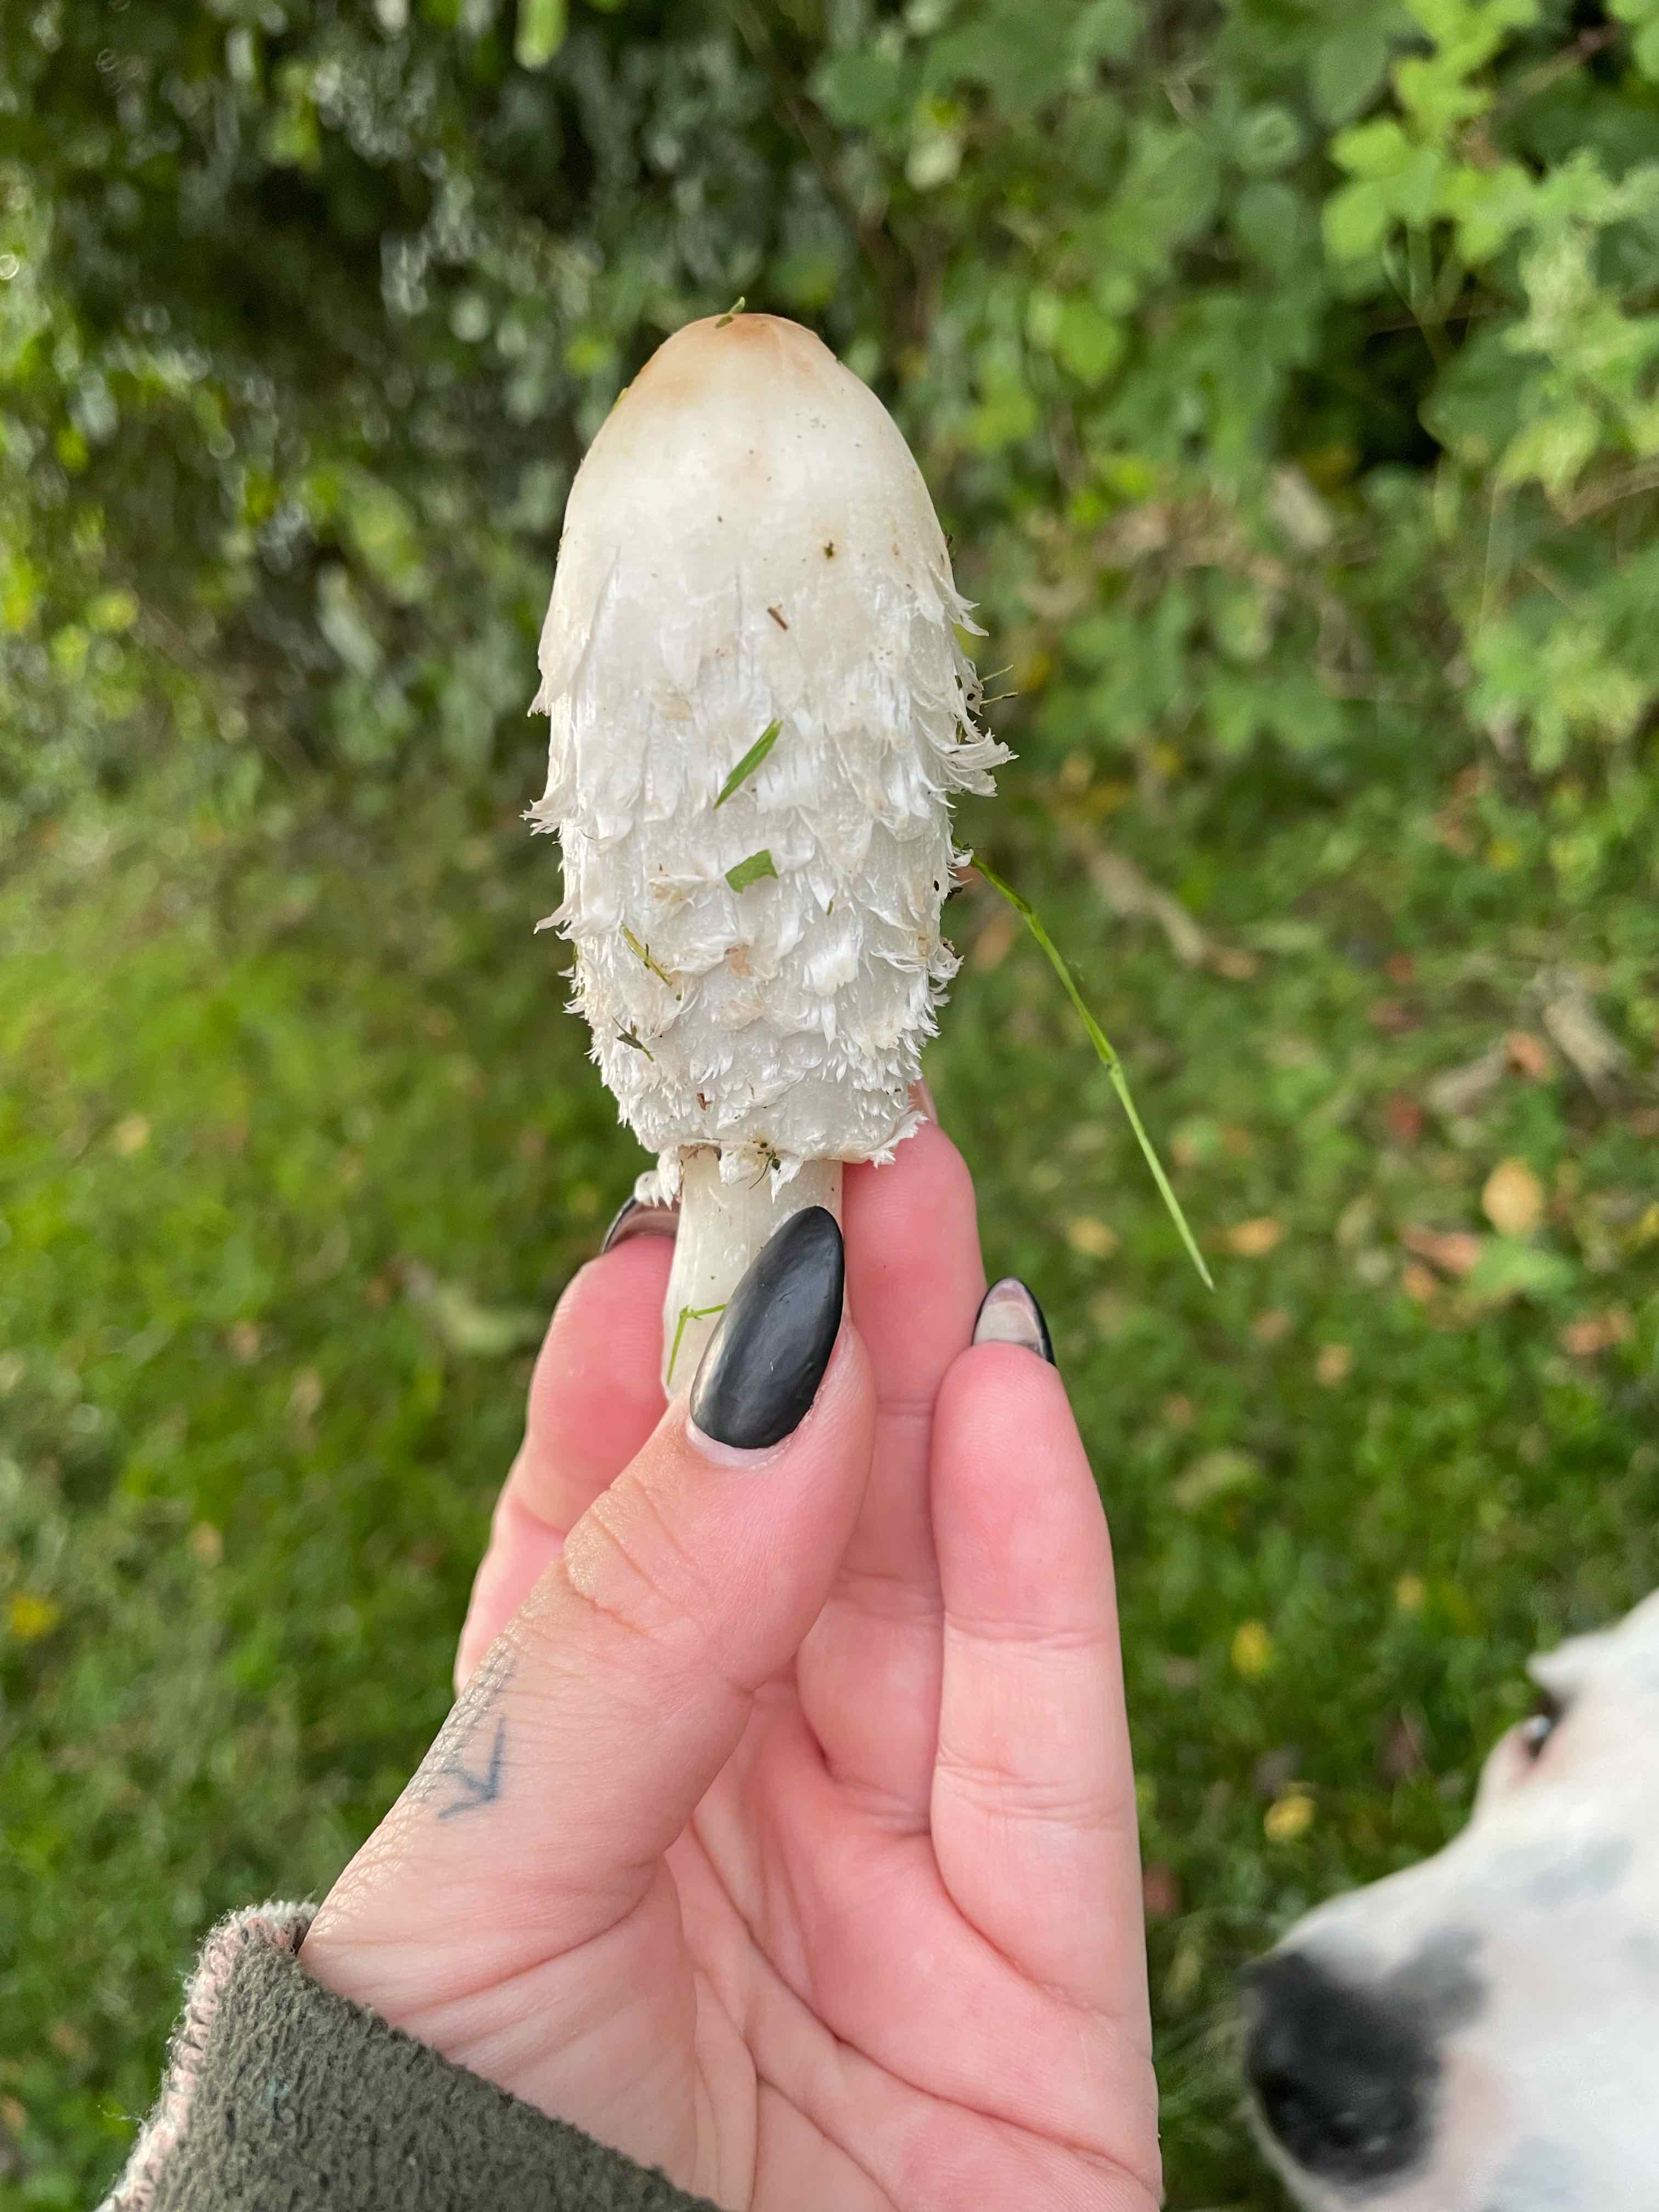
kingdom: Fungi
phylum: Basidiomycota
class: Agaricomycetes
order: Agaricales
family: Agaricaceae
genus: Coprinus
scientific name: Coprinus comatus
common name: stor parykhat
